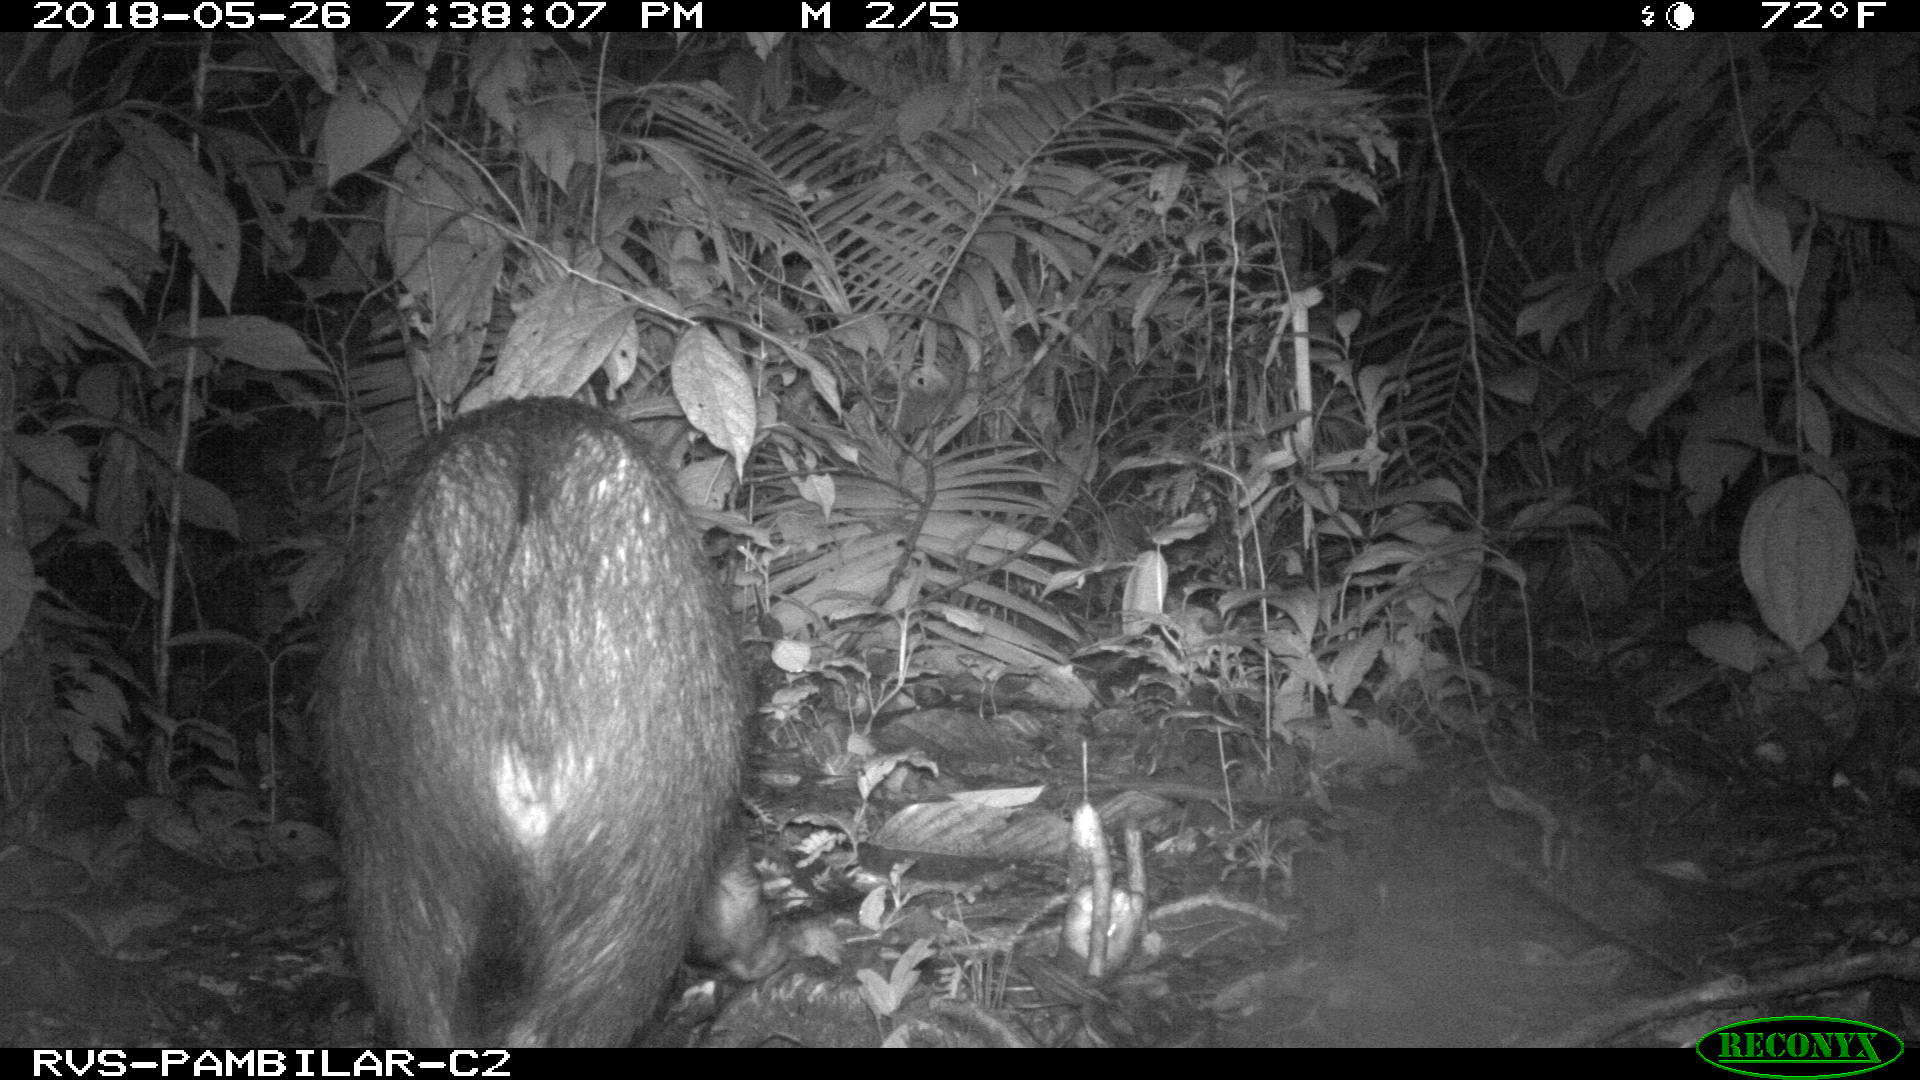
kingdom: Animalia
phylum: Chordata
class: Mammalia
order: Artiodactyla
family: Tayassuidae
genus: Tayassu
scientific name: Tayassu pecari
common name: White-lipped peccary
